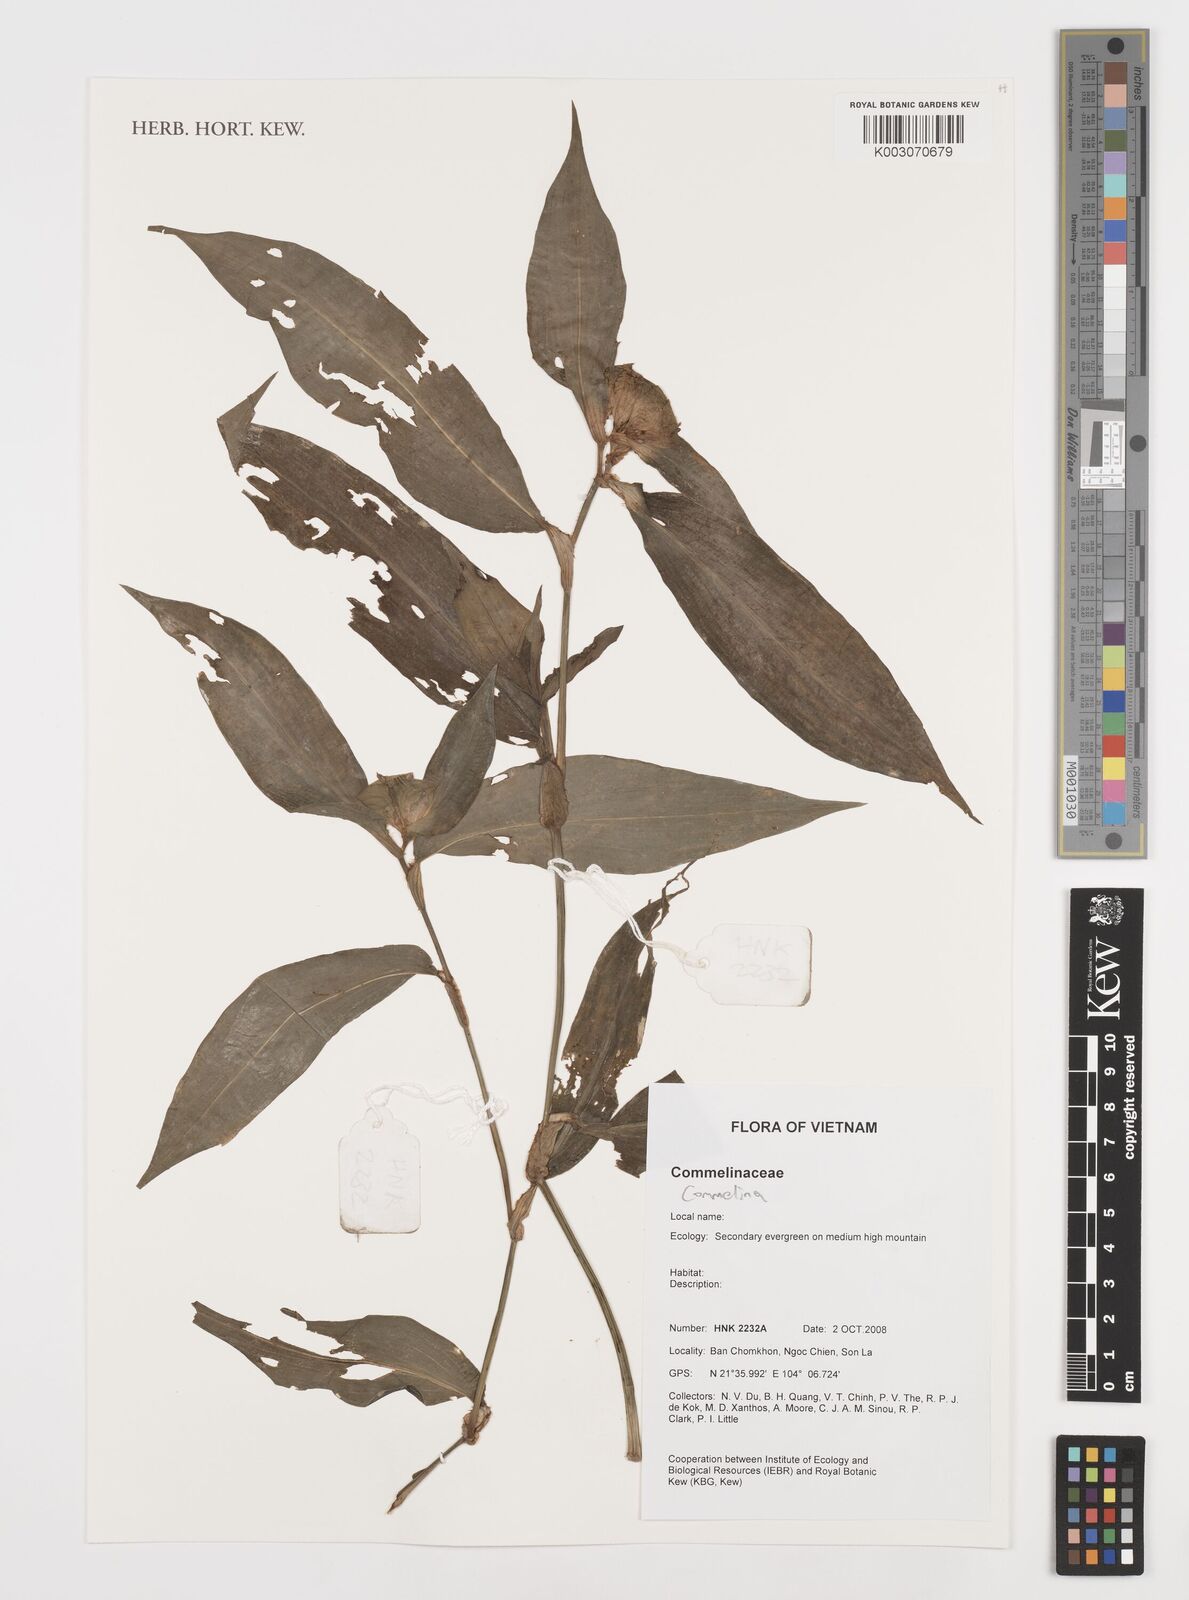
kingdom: Plantae
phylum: Tracheophyta
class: Liliopsida
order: Commelinales
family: Commelinaceae
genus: Commelina
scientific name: Commelina
